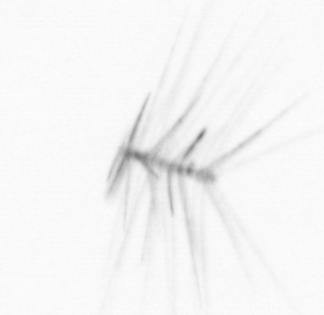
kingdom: Chromista
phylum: Ochrophyta
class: Bacillariophyceae
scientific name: Bacillariophyceae
